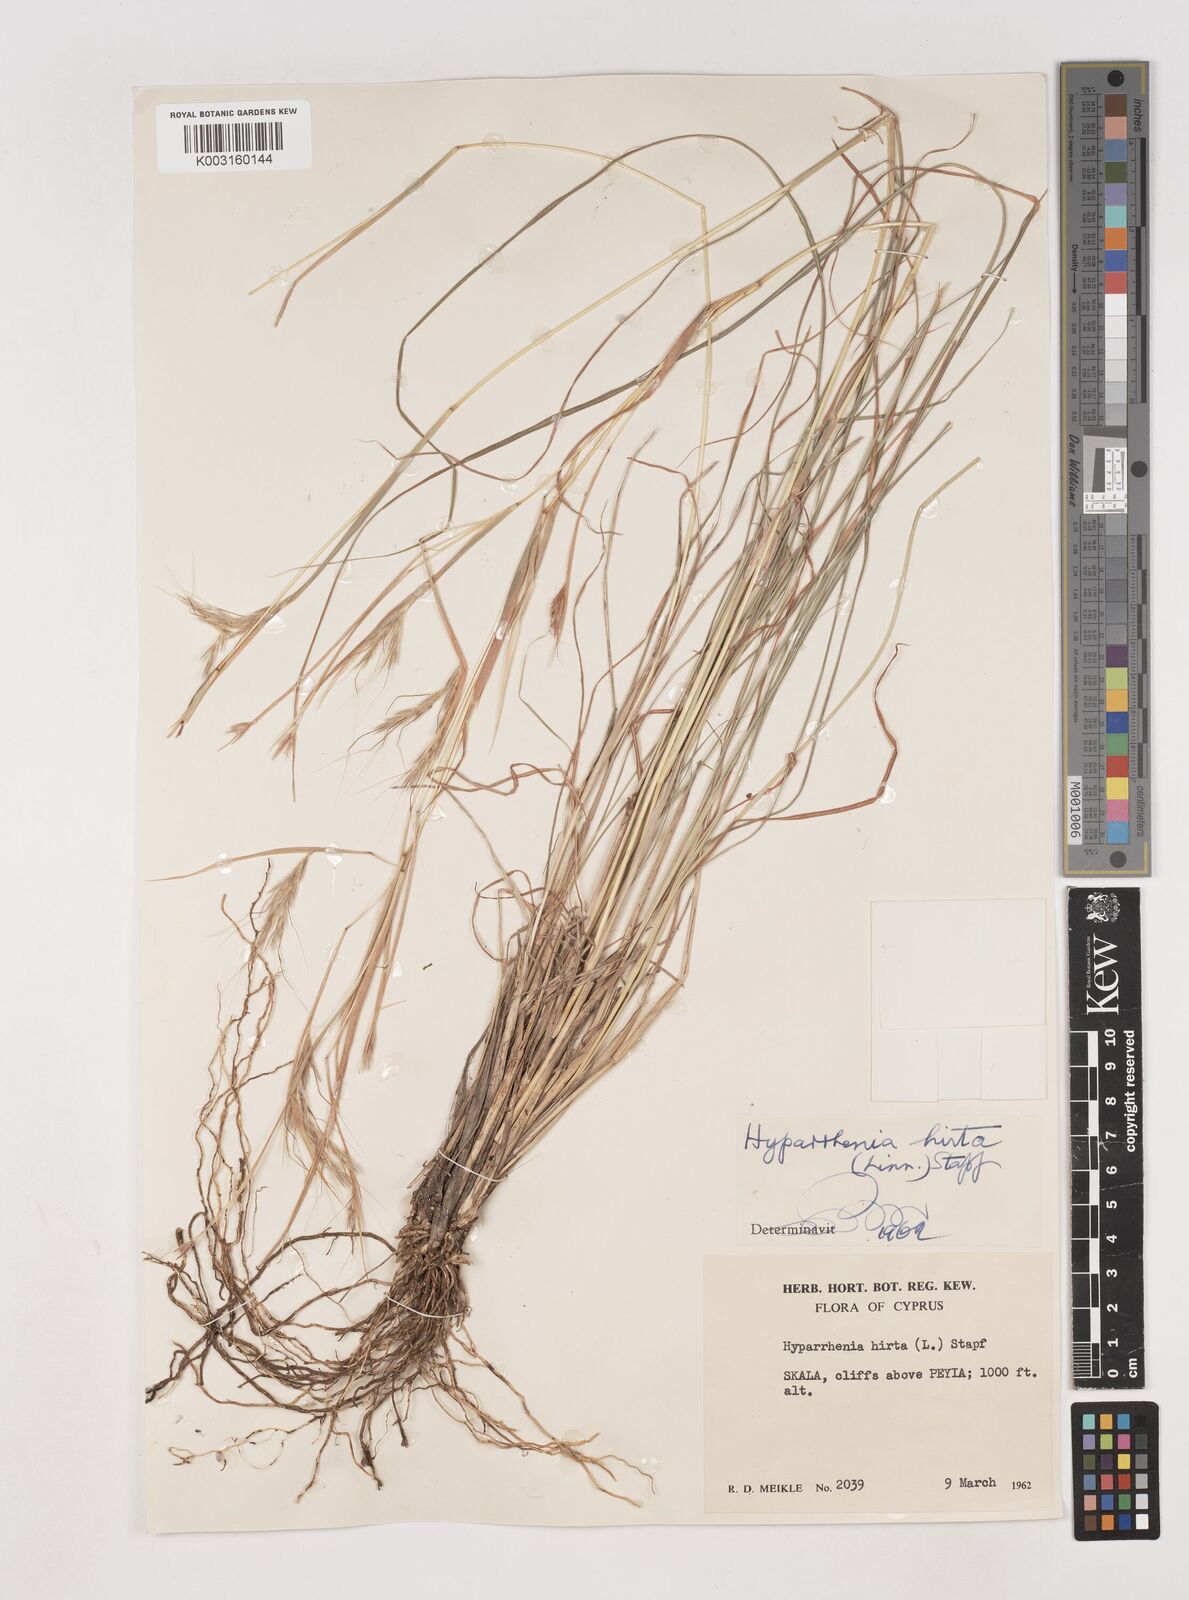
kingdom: Plantae
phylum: Tracheophyta
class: Liliopsida
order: Poales
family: Poaceae
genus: Hyparrhenia
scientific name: Hyparrhenia hirta
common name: Thatching grass
